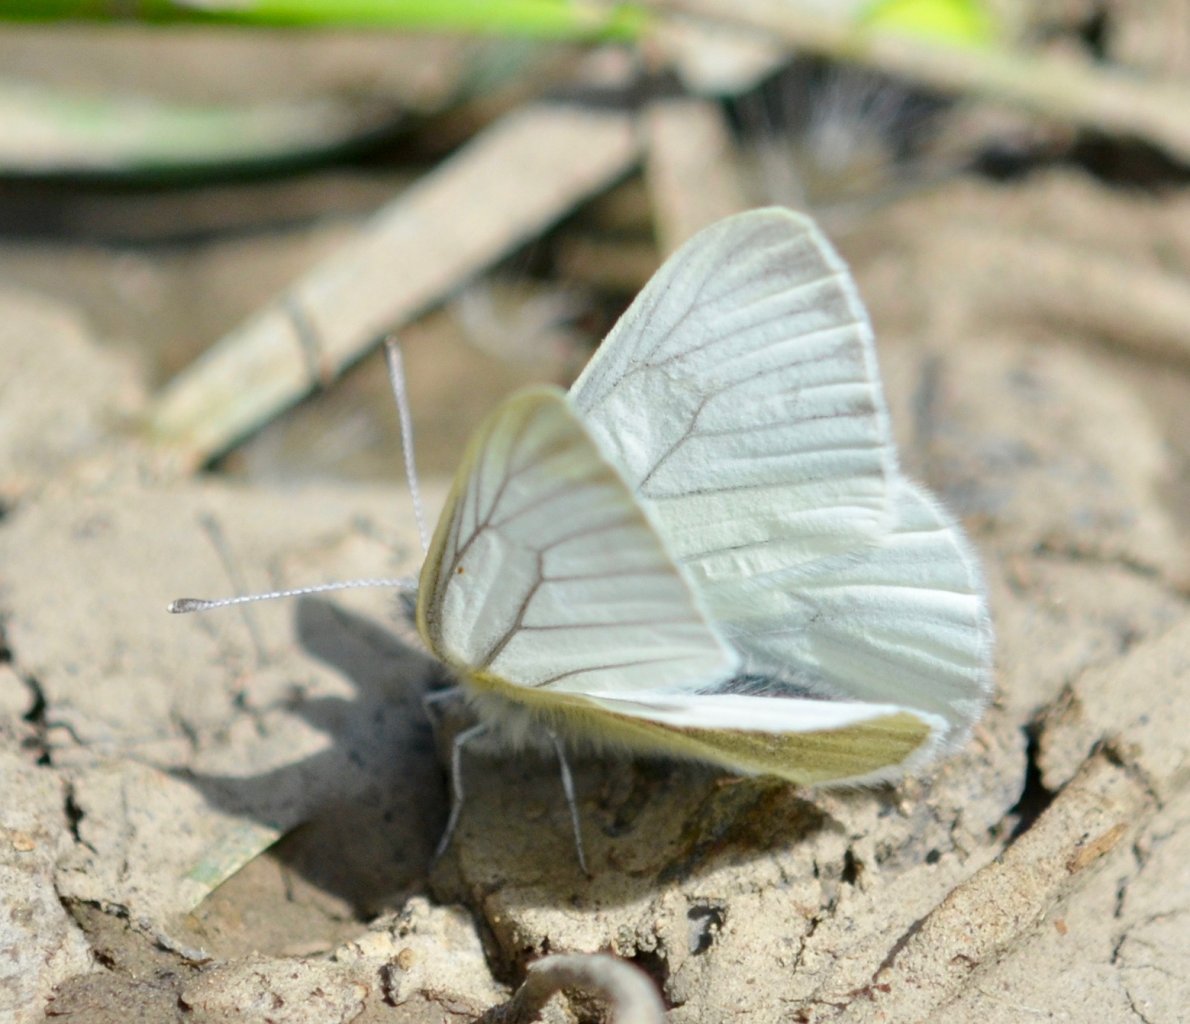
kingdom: Animalia
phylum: Arthropoda
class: Insecta
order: Lepidoptera
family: Pieridae
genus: Pieris
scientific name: Pieris angelika
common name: Arctic White
